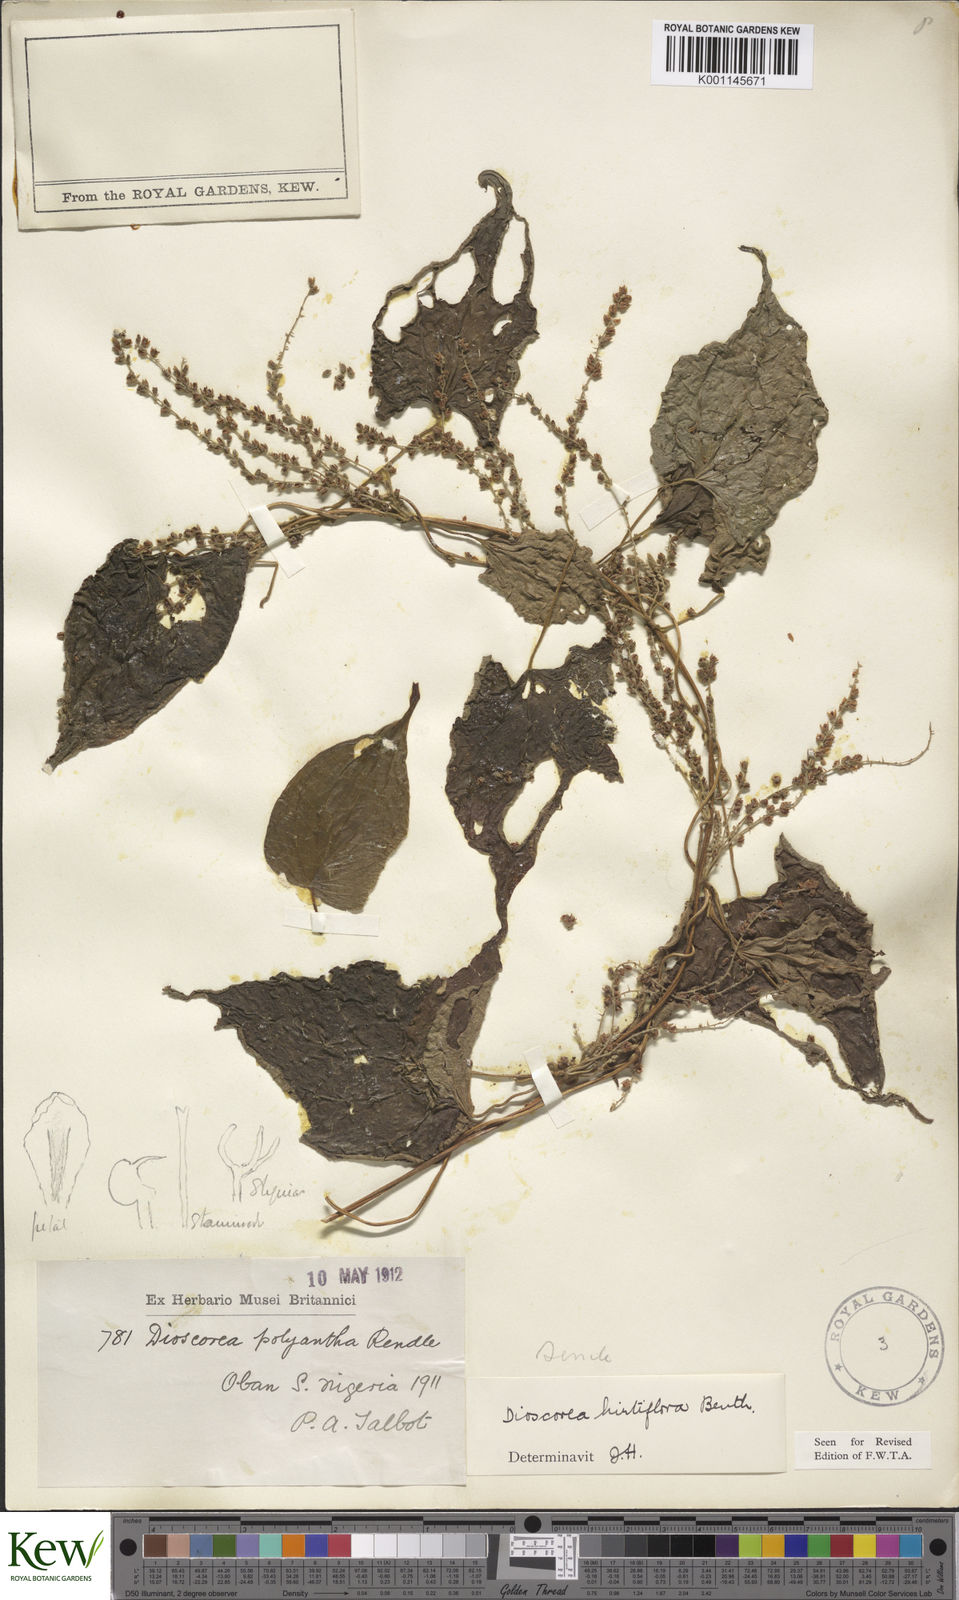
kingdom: Plantae
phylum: Tracheophyta
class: Liliopsida
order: Dioscoreales
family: Dioscoreaceae
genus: Dioscorea
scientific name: Dioscorea hirtiflora
